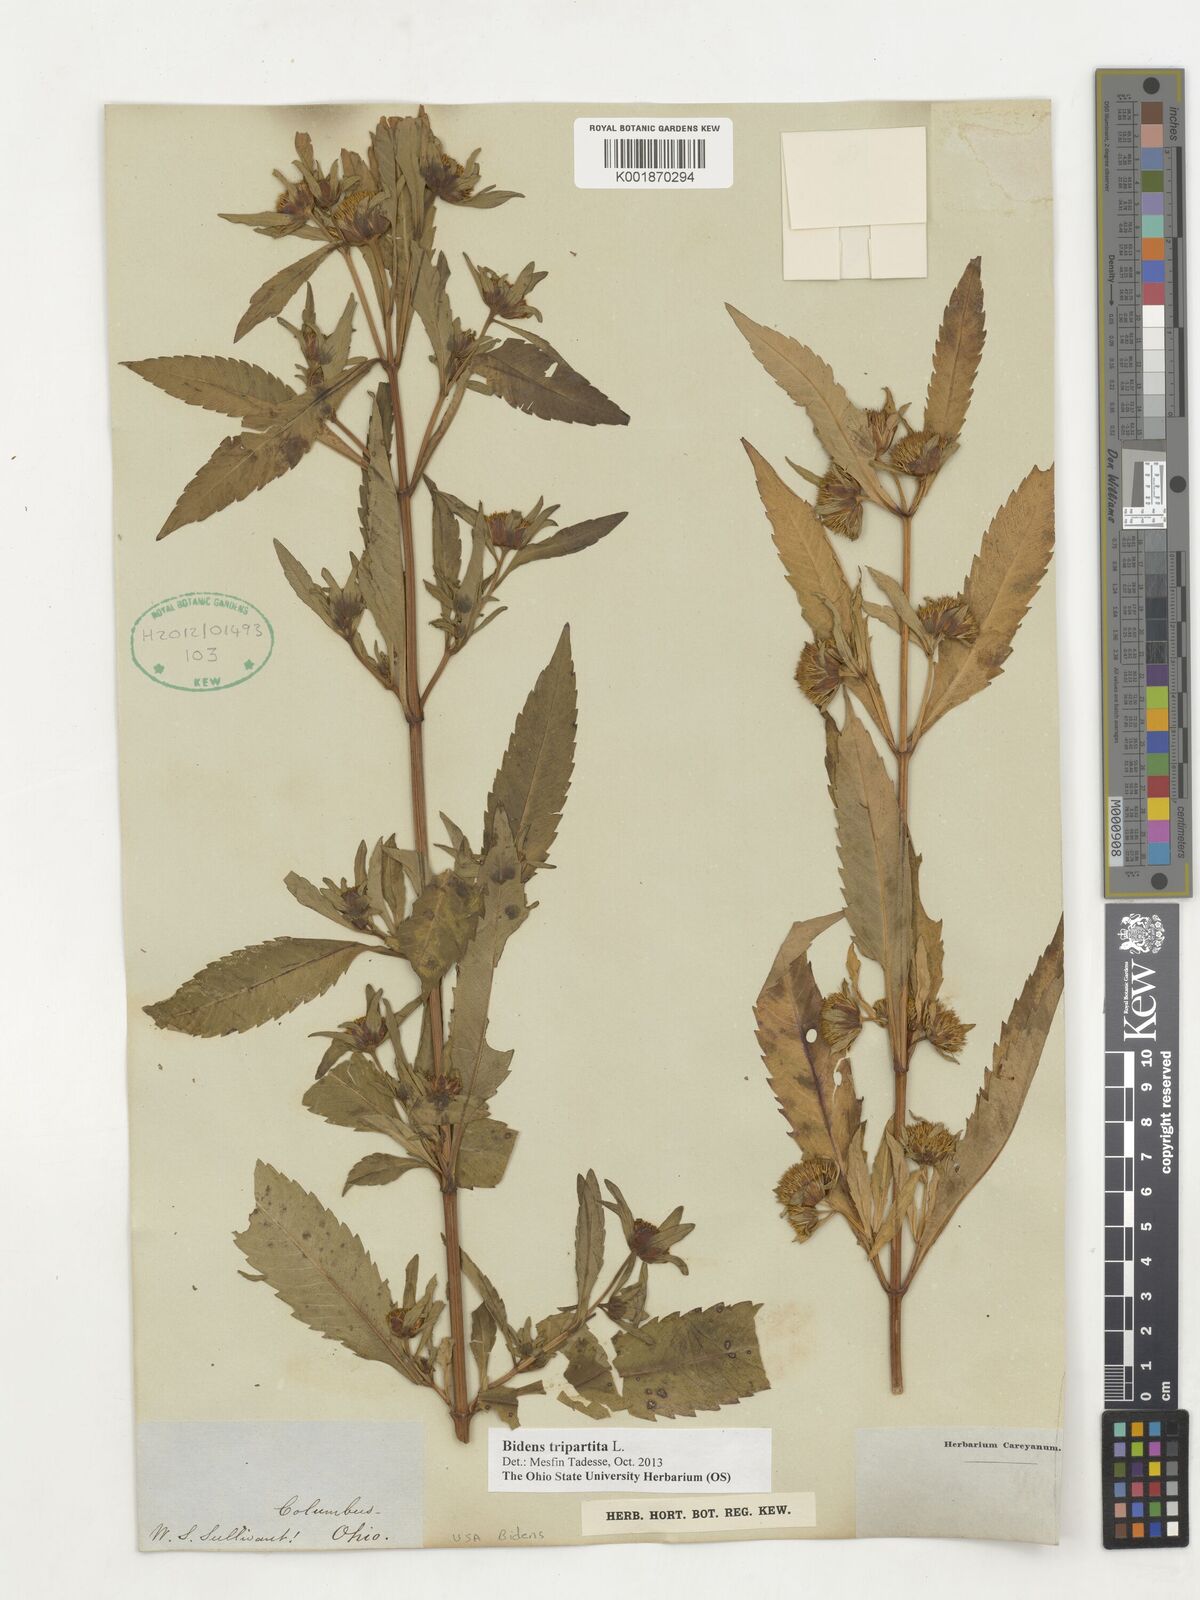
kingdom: Plantae
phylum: Tracheophyta
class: Magnoliopsida
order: Asterales
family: Asteraceae
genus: Bidens
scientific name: Bidens tripartita
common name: Trifid bur-marigold
